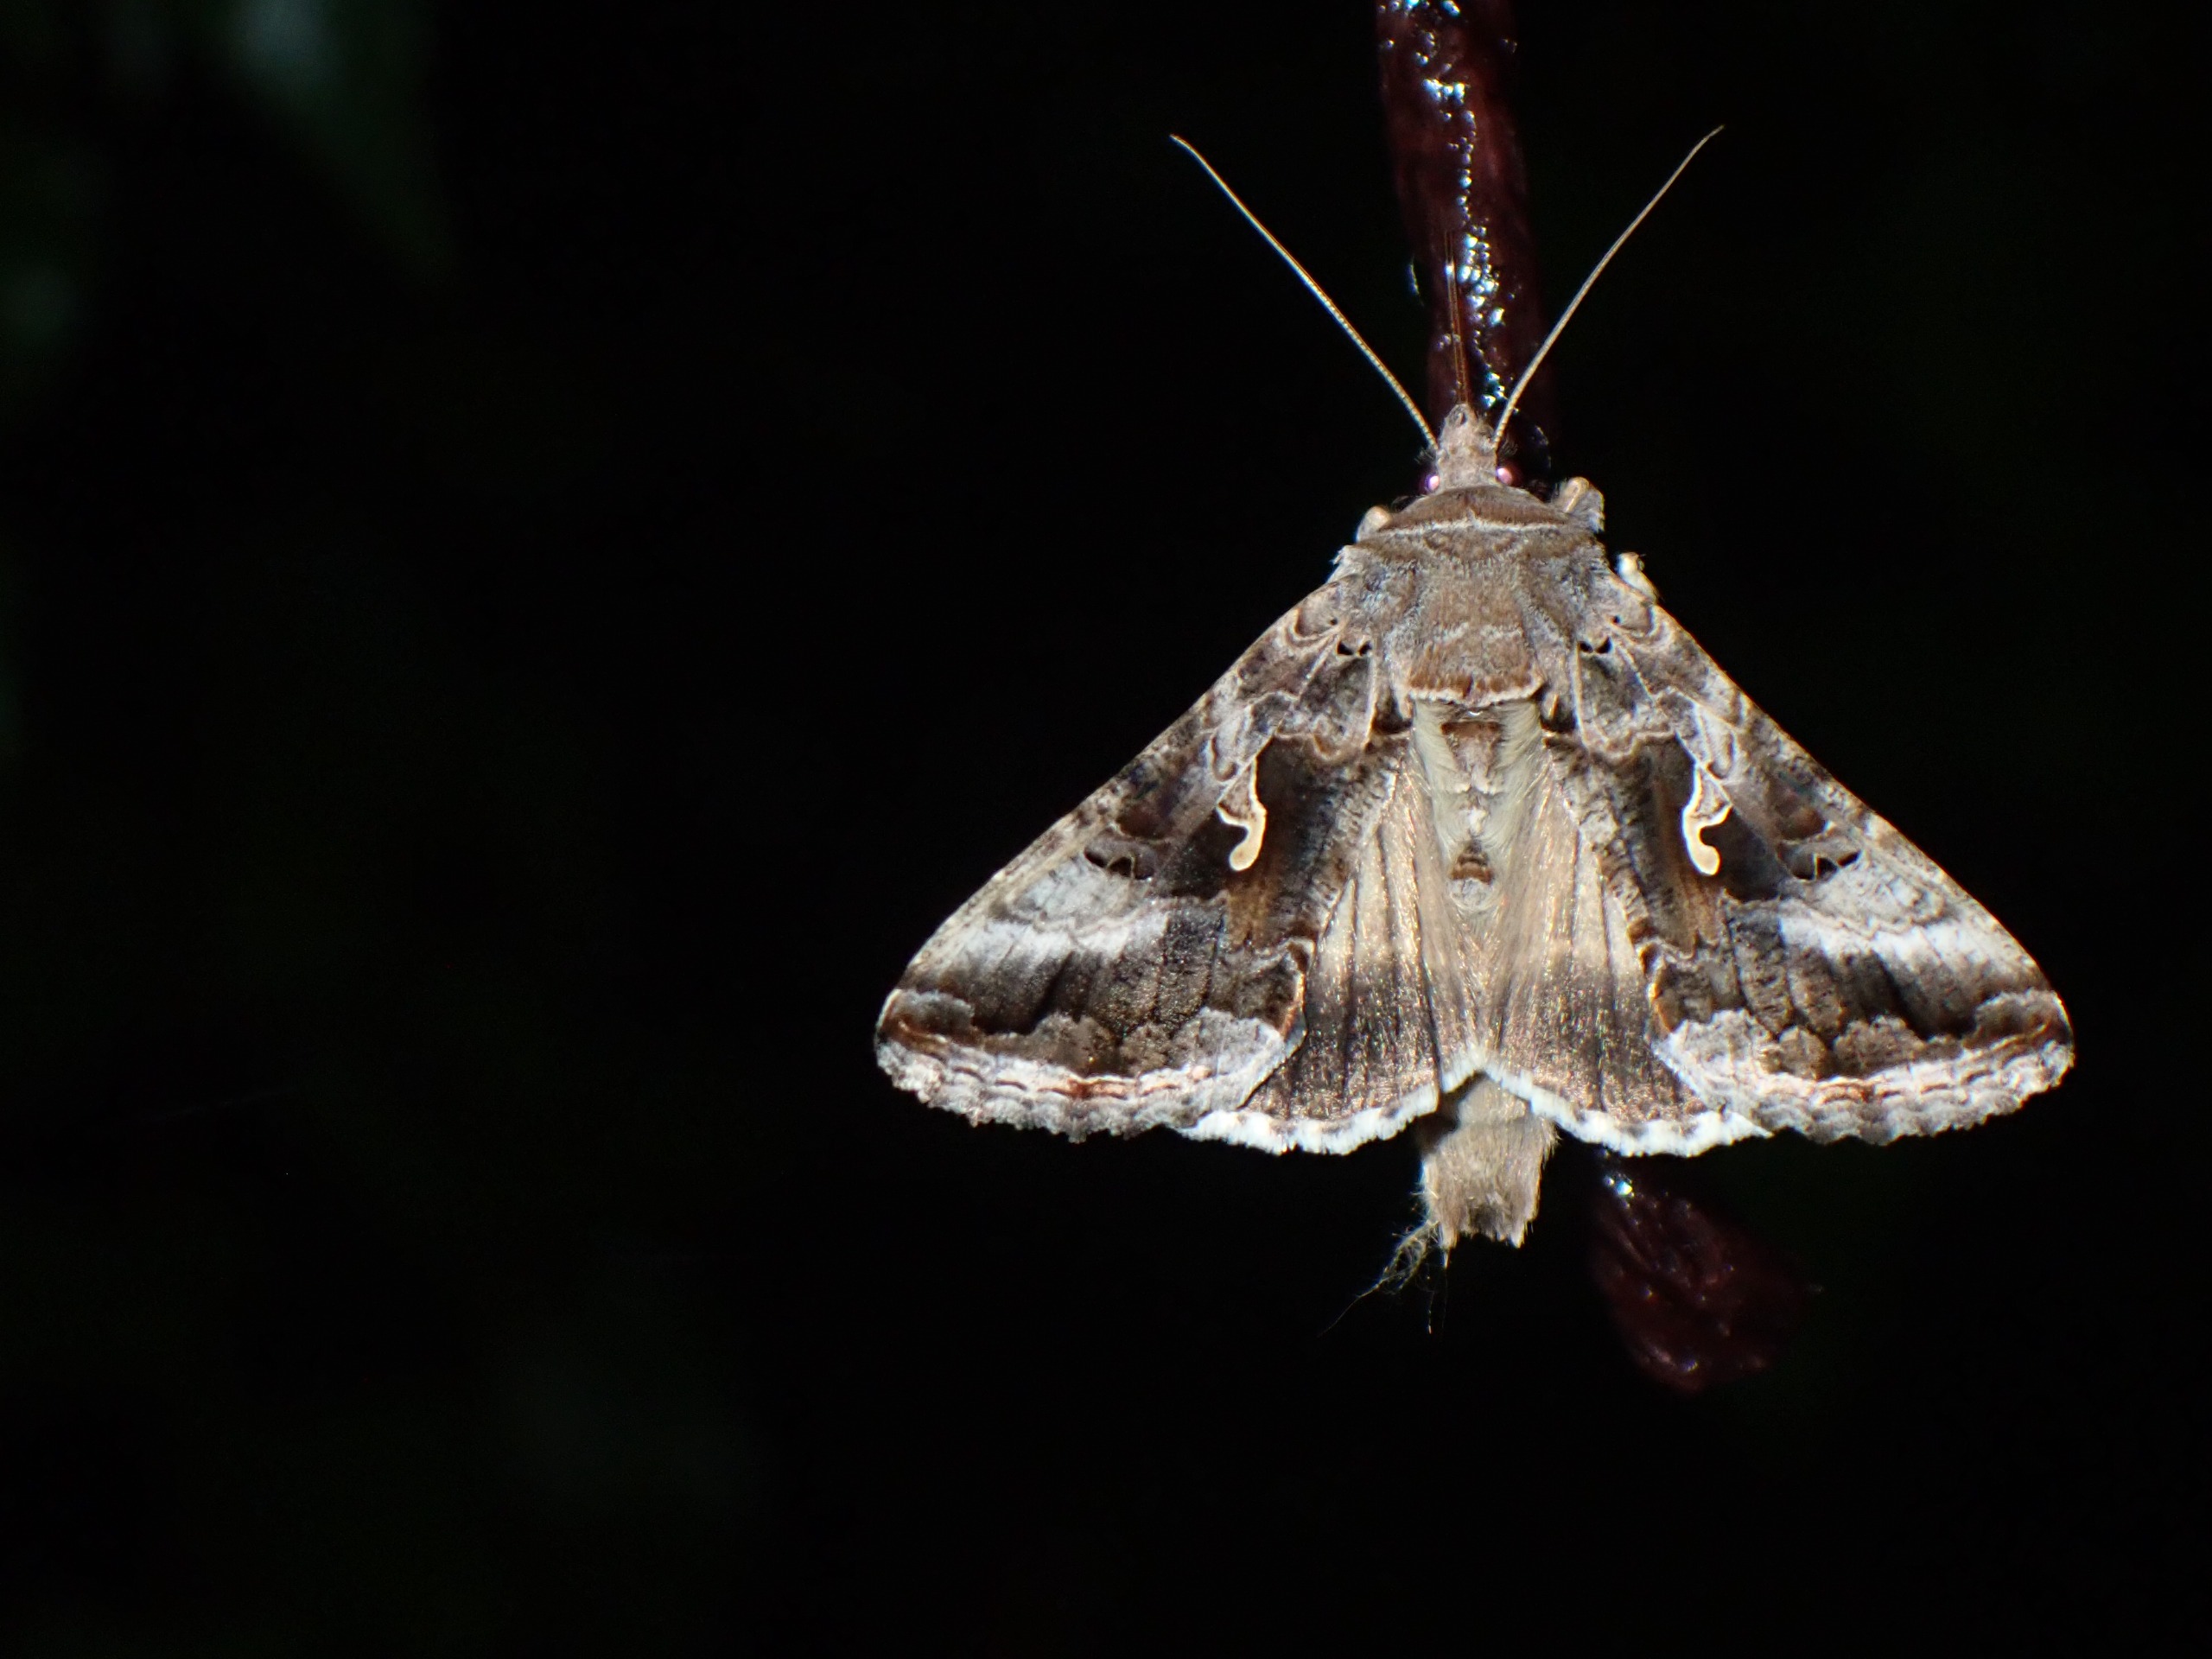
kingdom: Animalia
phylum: Arthropoda
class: Insecta
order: Lepidoptera
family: Noctuidae
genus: Autographa
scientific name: Autographa gamma
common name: Gammaugle
